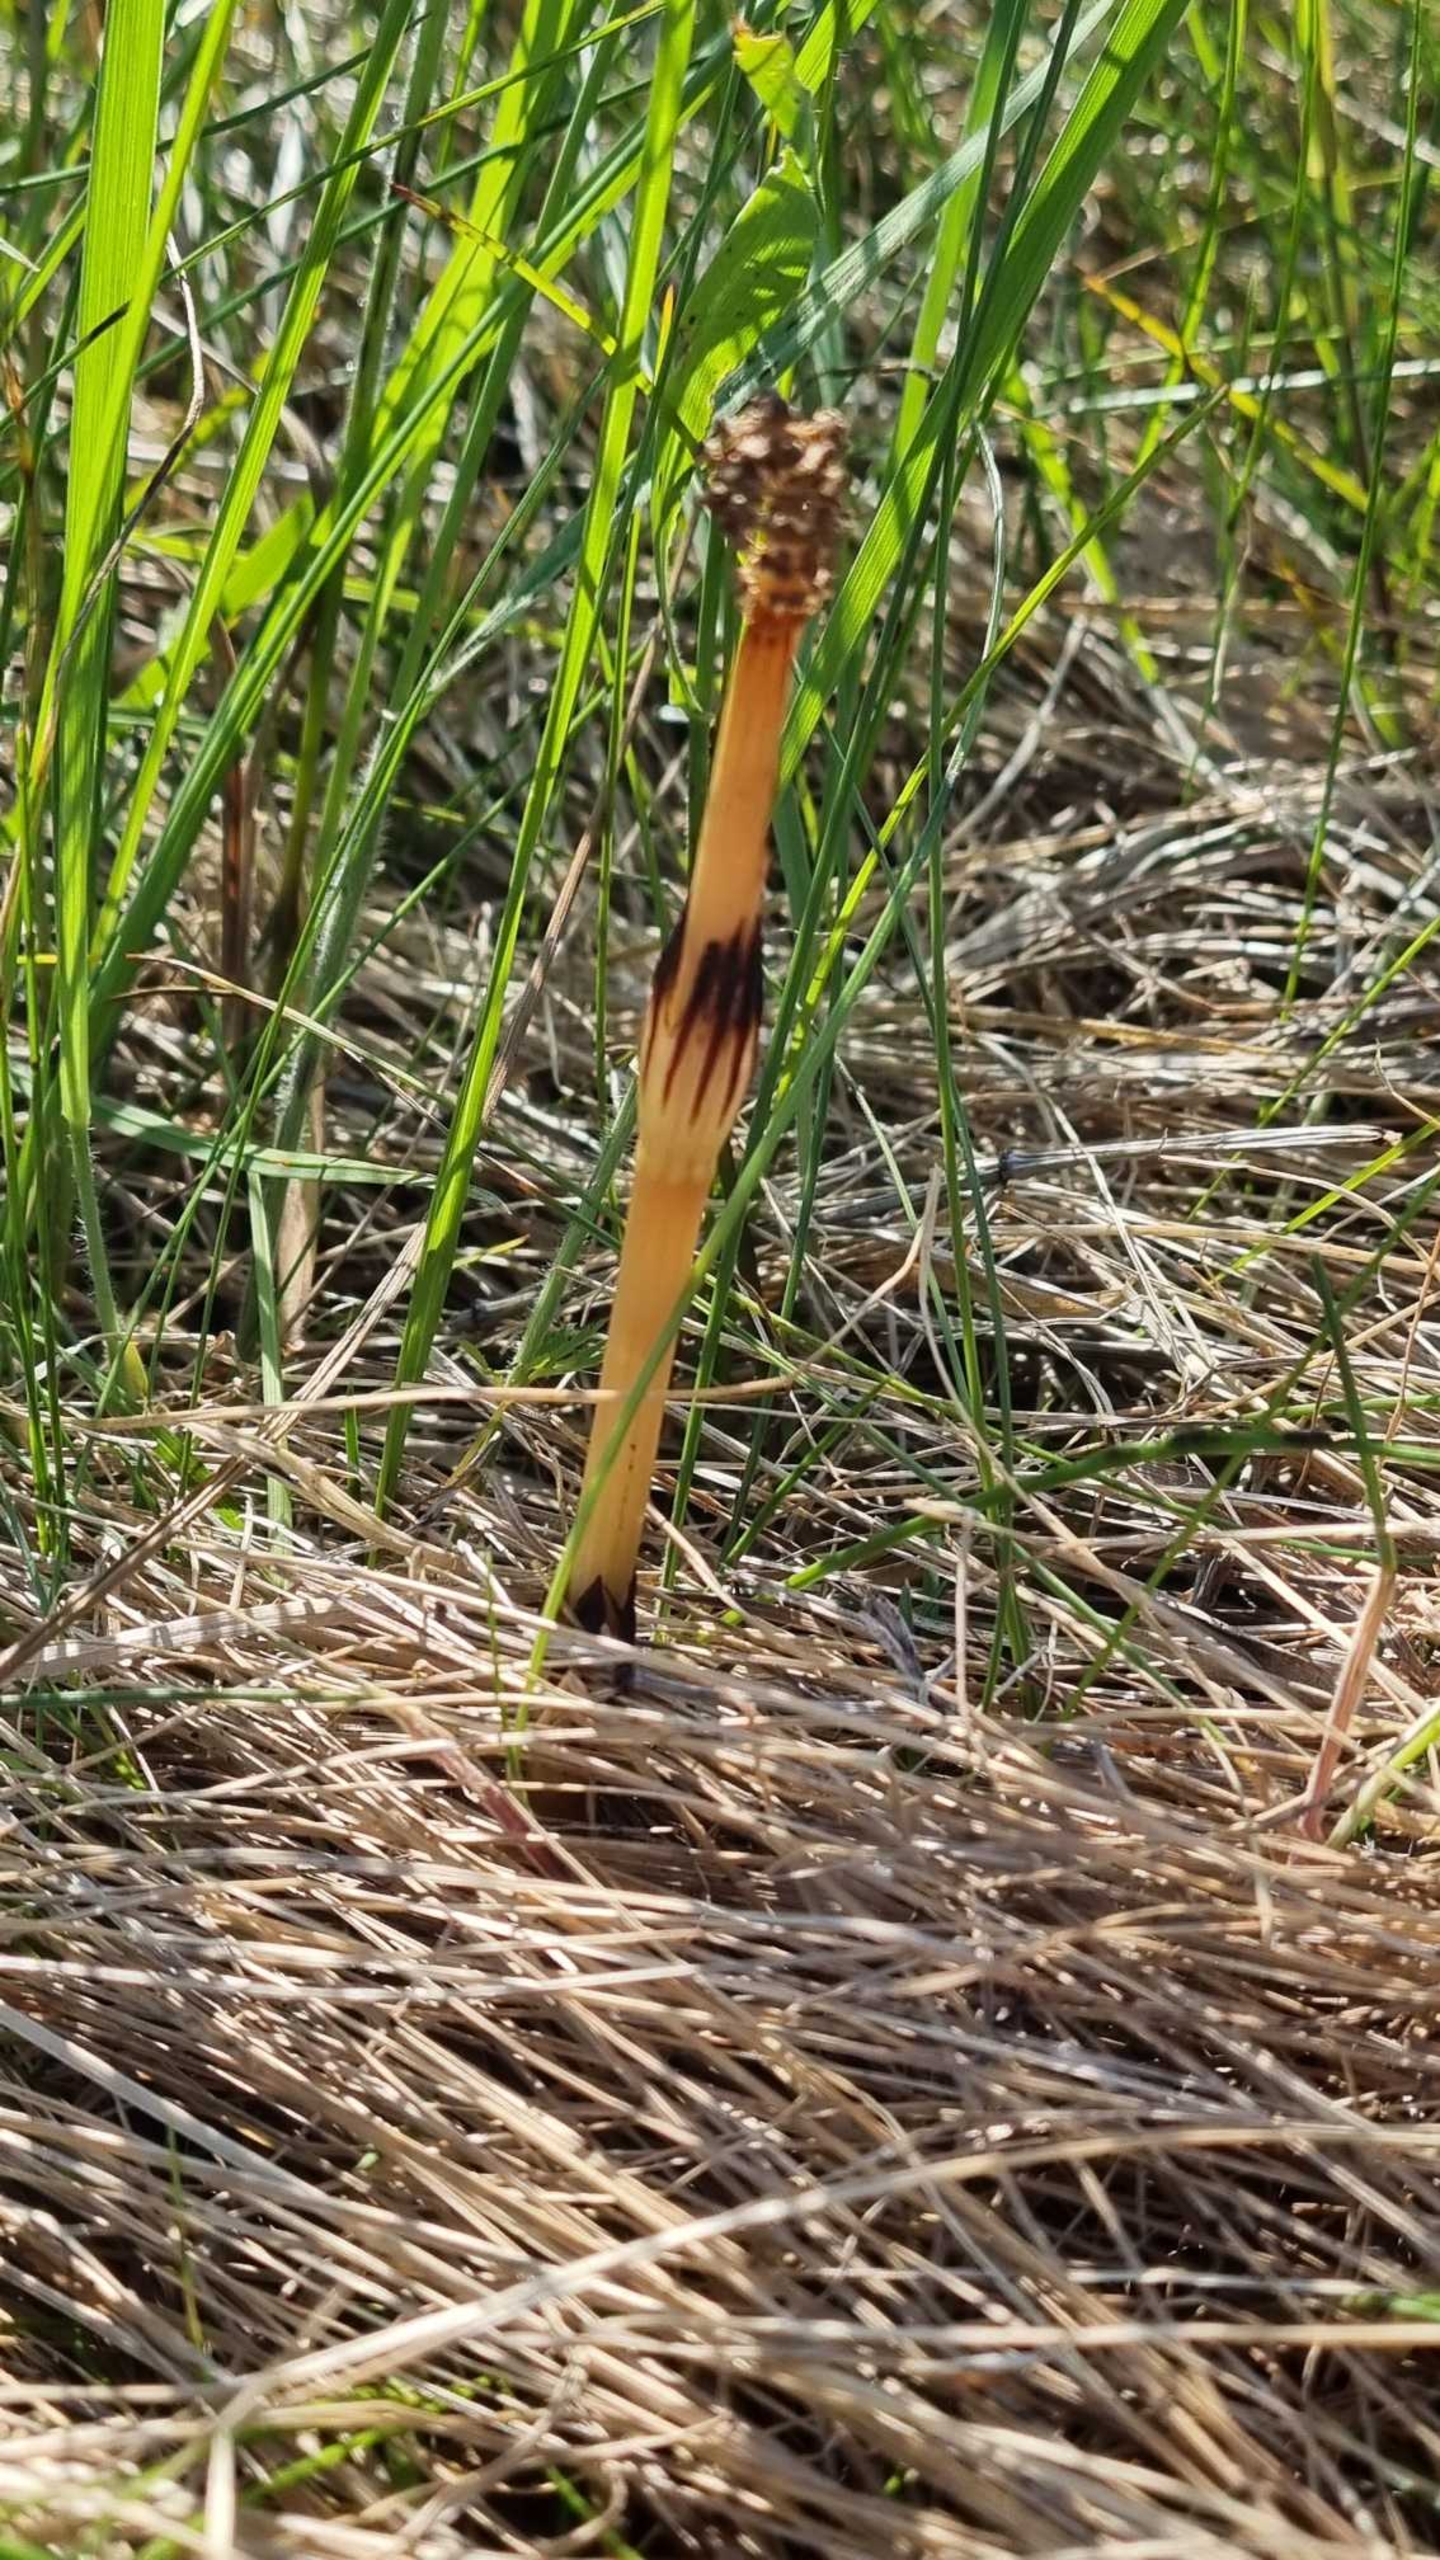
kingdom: Plantae
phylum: Tracheophyta
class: Polypodiopsida
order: Equisetales
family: Equisetaceae
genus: Equisetum
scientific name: Equisetum arvense
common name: Ager-padderok
